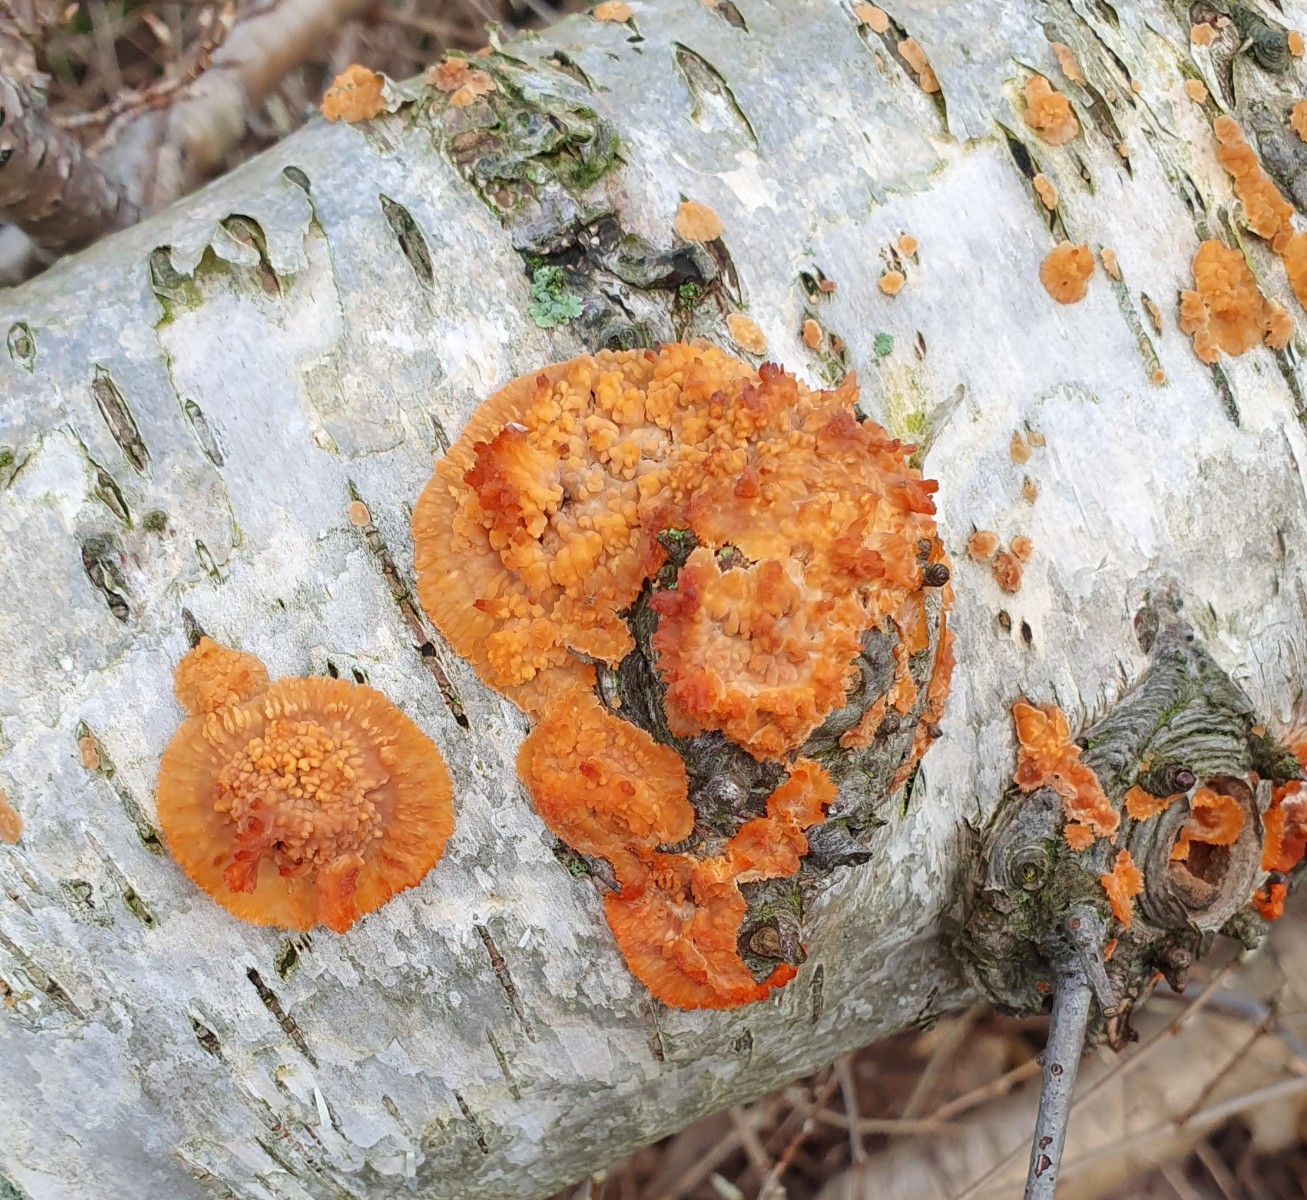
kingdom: Fungi
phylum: Basidiomycota
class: Agaricomycetes
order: Polyporales
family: Meruliaceae
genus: Phlebia
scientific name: Phlebia radiata
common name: stråle-åresvamp
